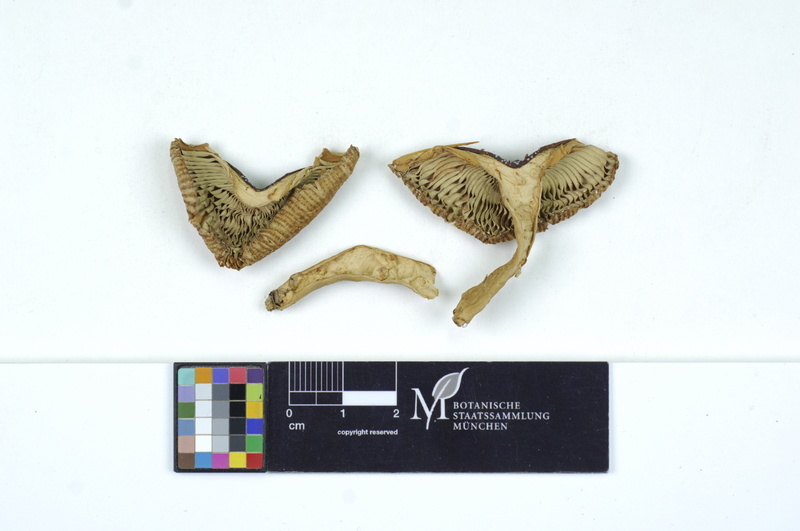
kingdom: Fungi
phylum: Basidiomycota
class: Agaricomycetes
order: Russulales
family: Russulaceae
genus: Russula
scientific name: Russula pectinatoides
